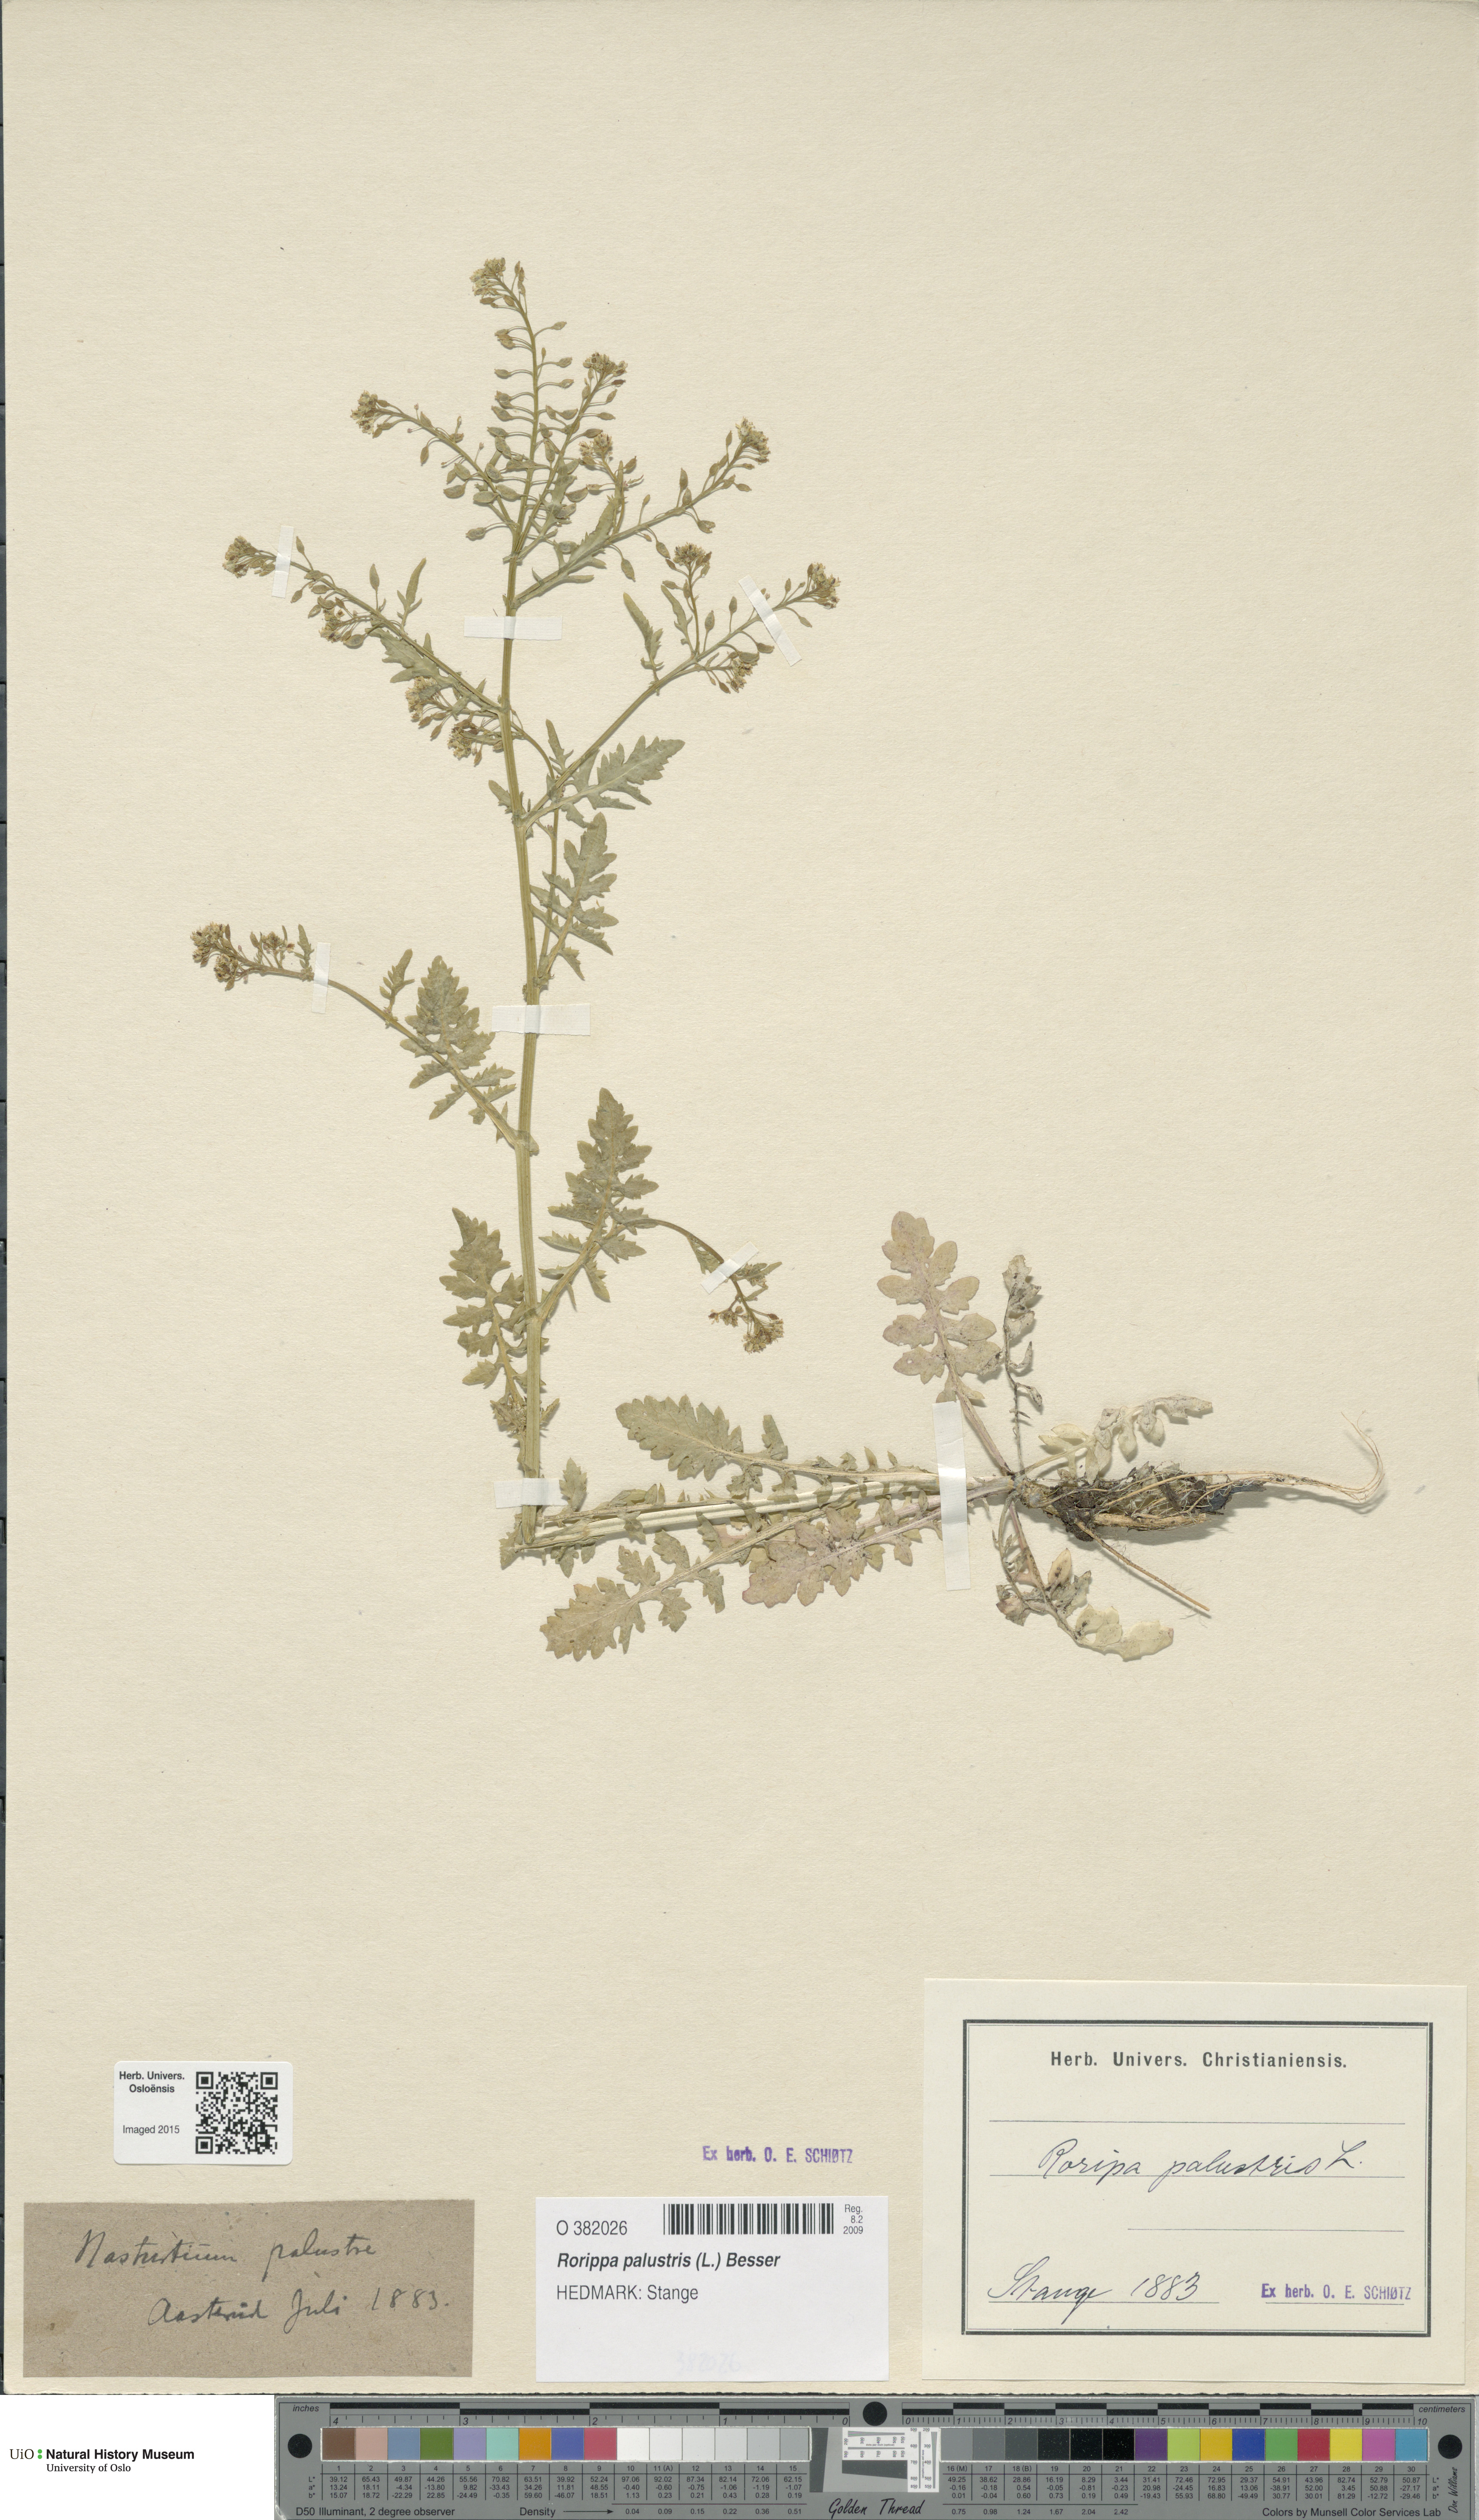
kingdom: Plantae
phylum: Tracheophyta
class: Magnoliopsida
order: Brassicales
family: Brassicaceae
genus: Rorippa
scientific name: Rorippa palustris
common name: Marsh yellow-cress
